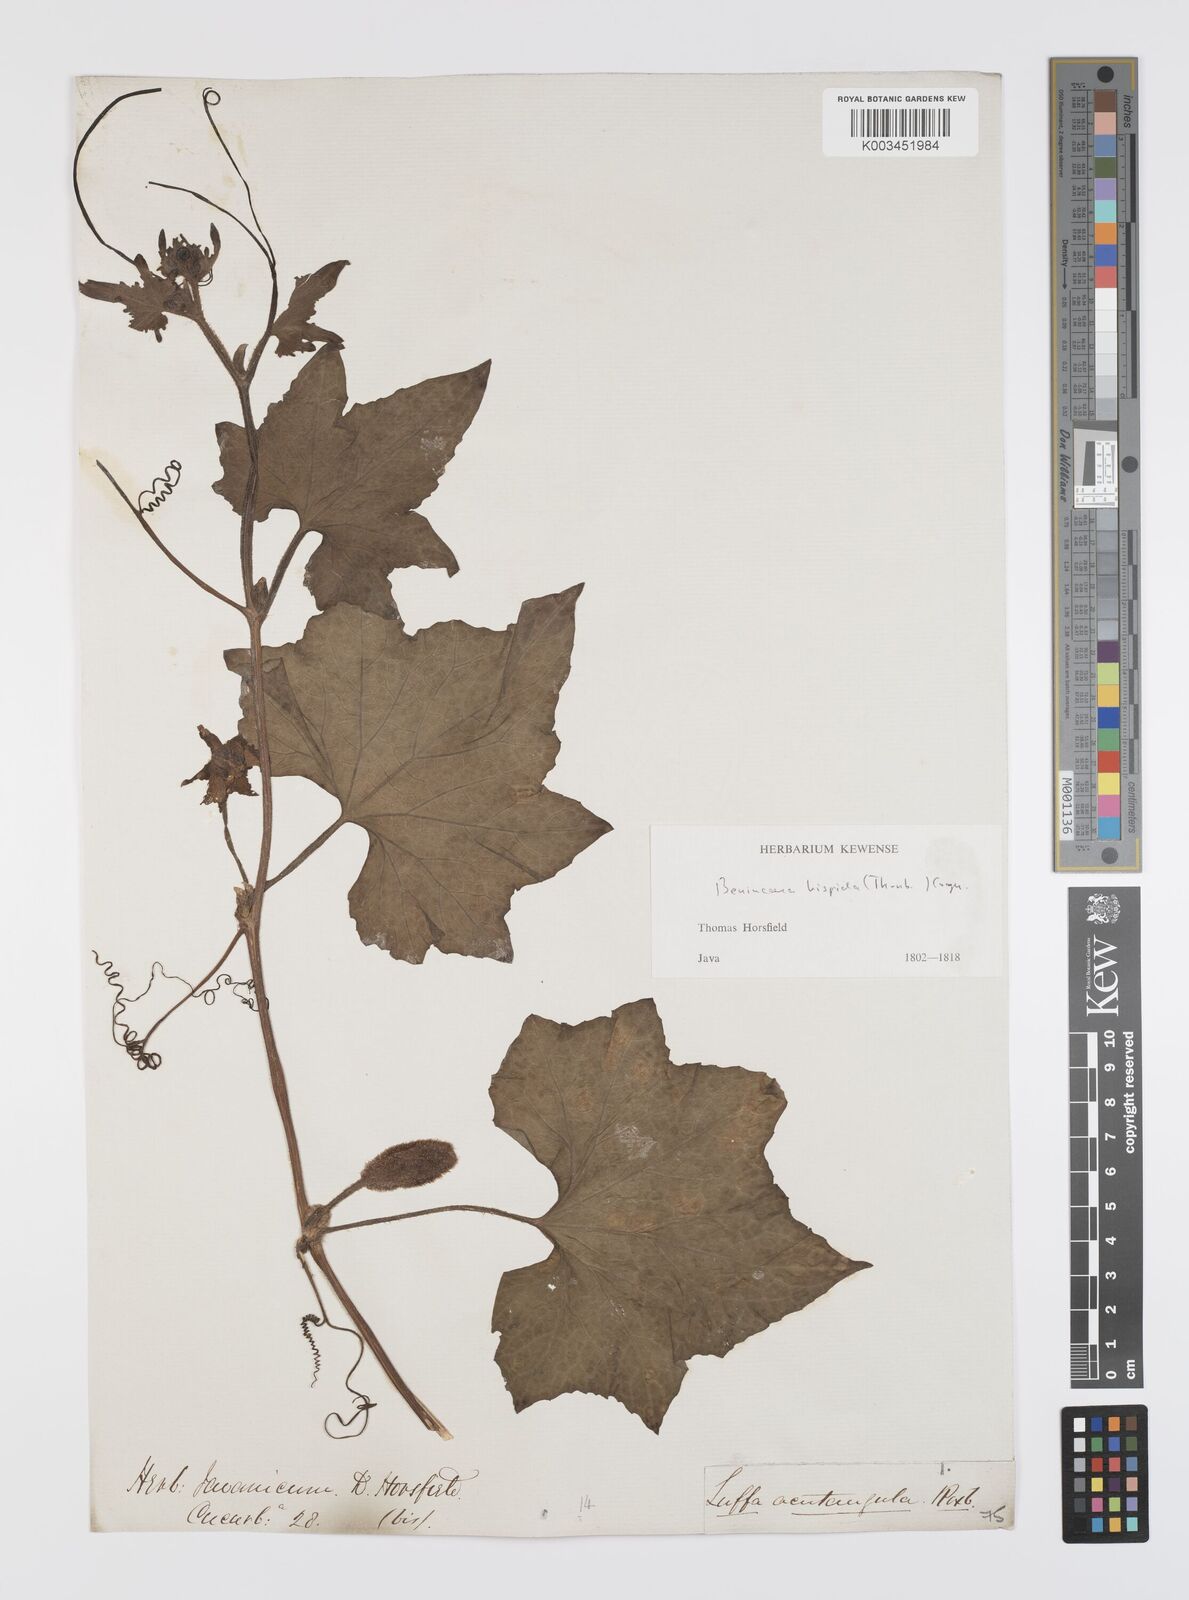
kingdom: Plantae
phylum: Tracheophyta
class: Magnoliopsida
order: Cucurbitales
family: Cucurbitaceae
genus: Benincasa
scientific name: Benincasa hispida
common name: Chinese-watermelon
